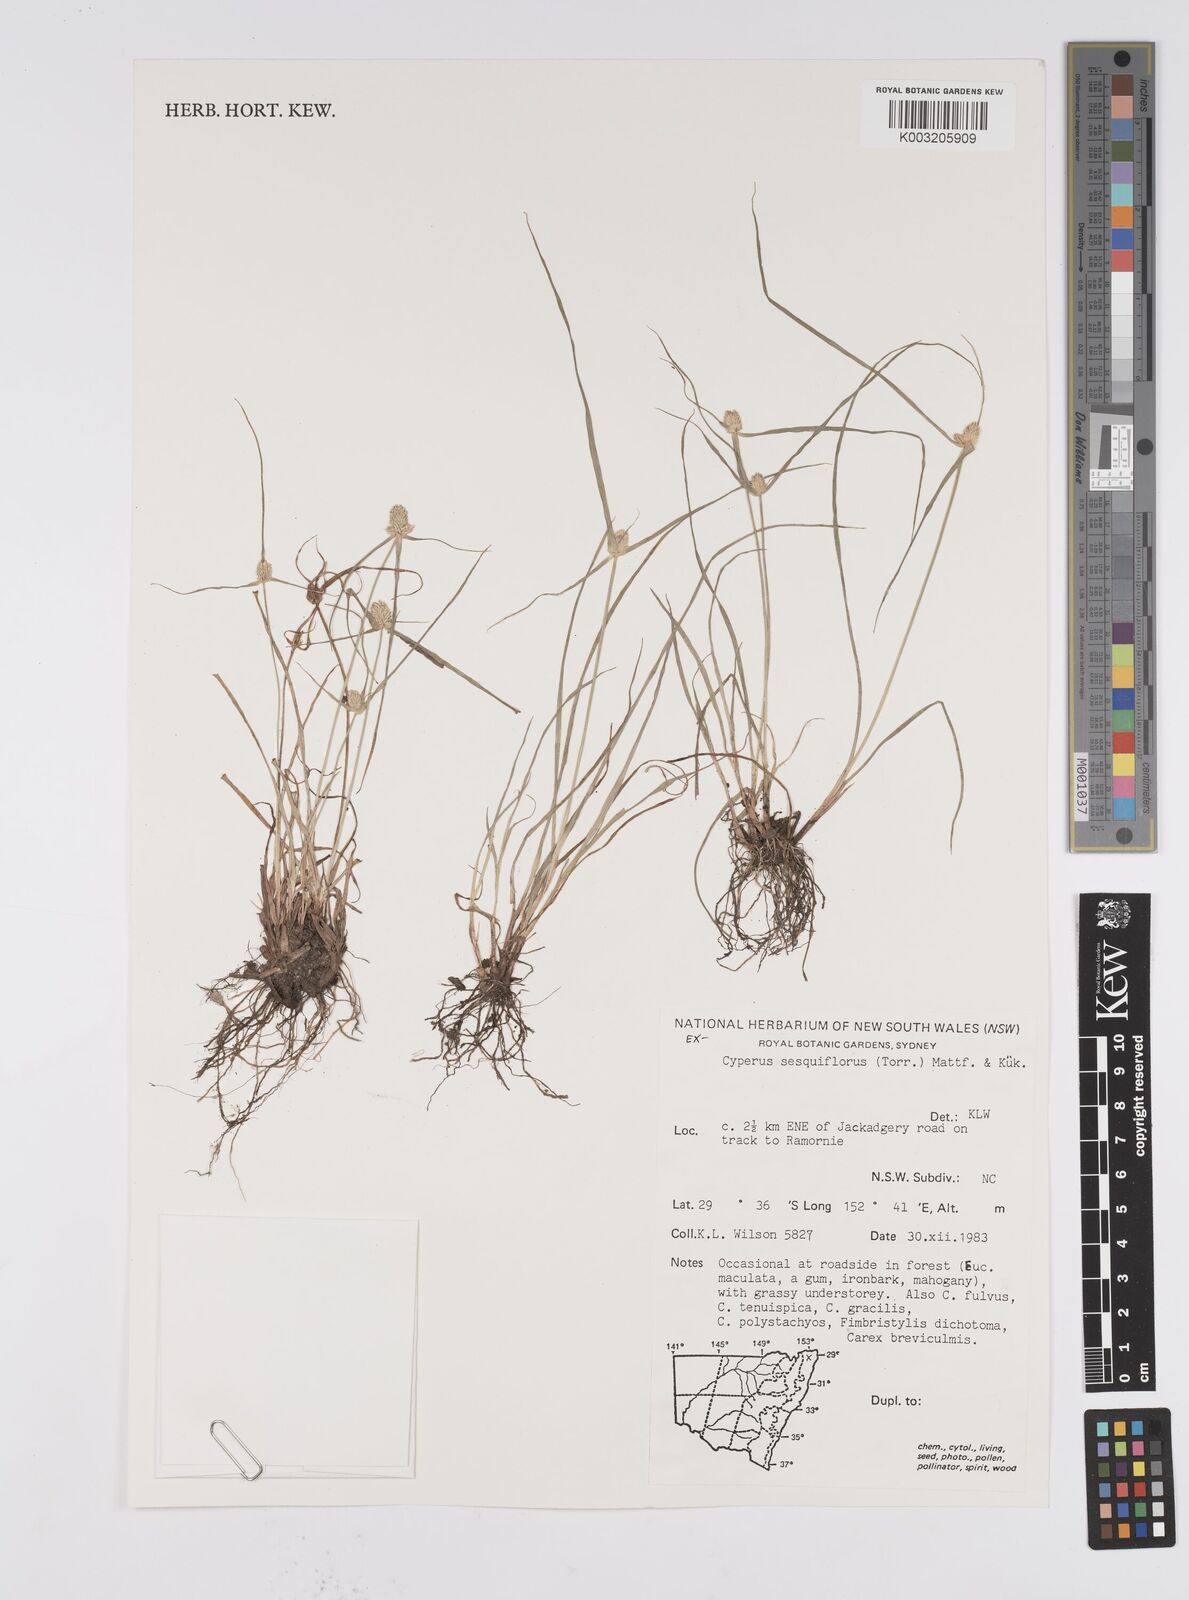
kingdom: Plantae
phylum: Tracheophyta
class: Liliopsida
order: Poales
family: Cyperaceae
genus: Cyperus
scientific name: Cyperus
